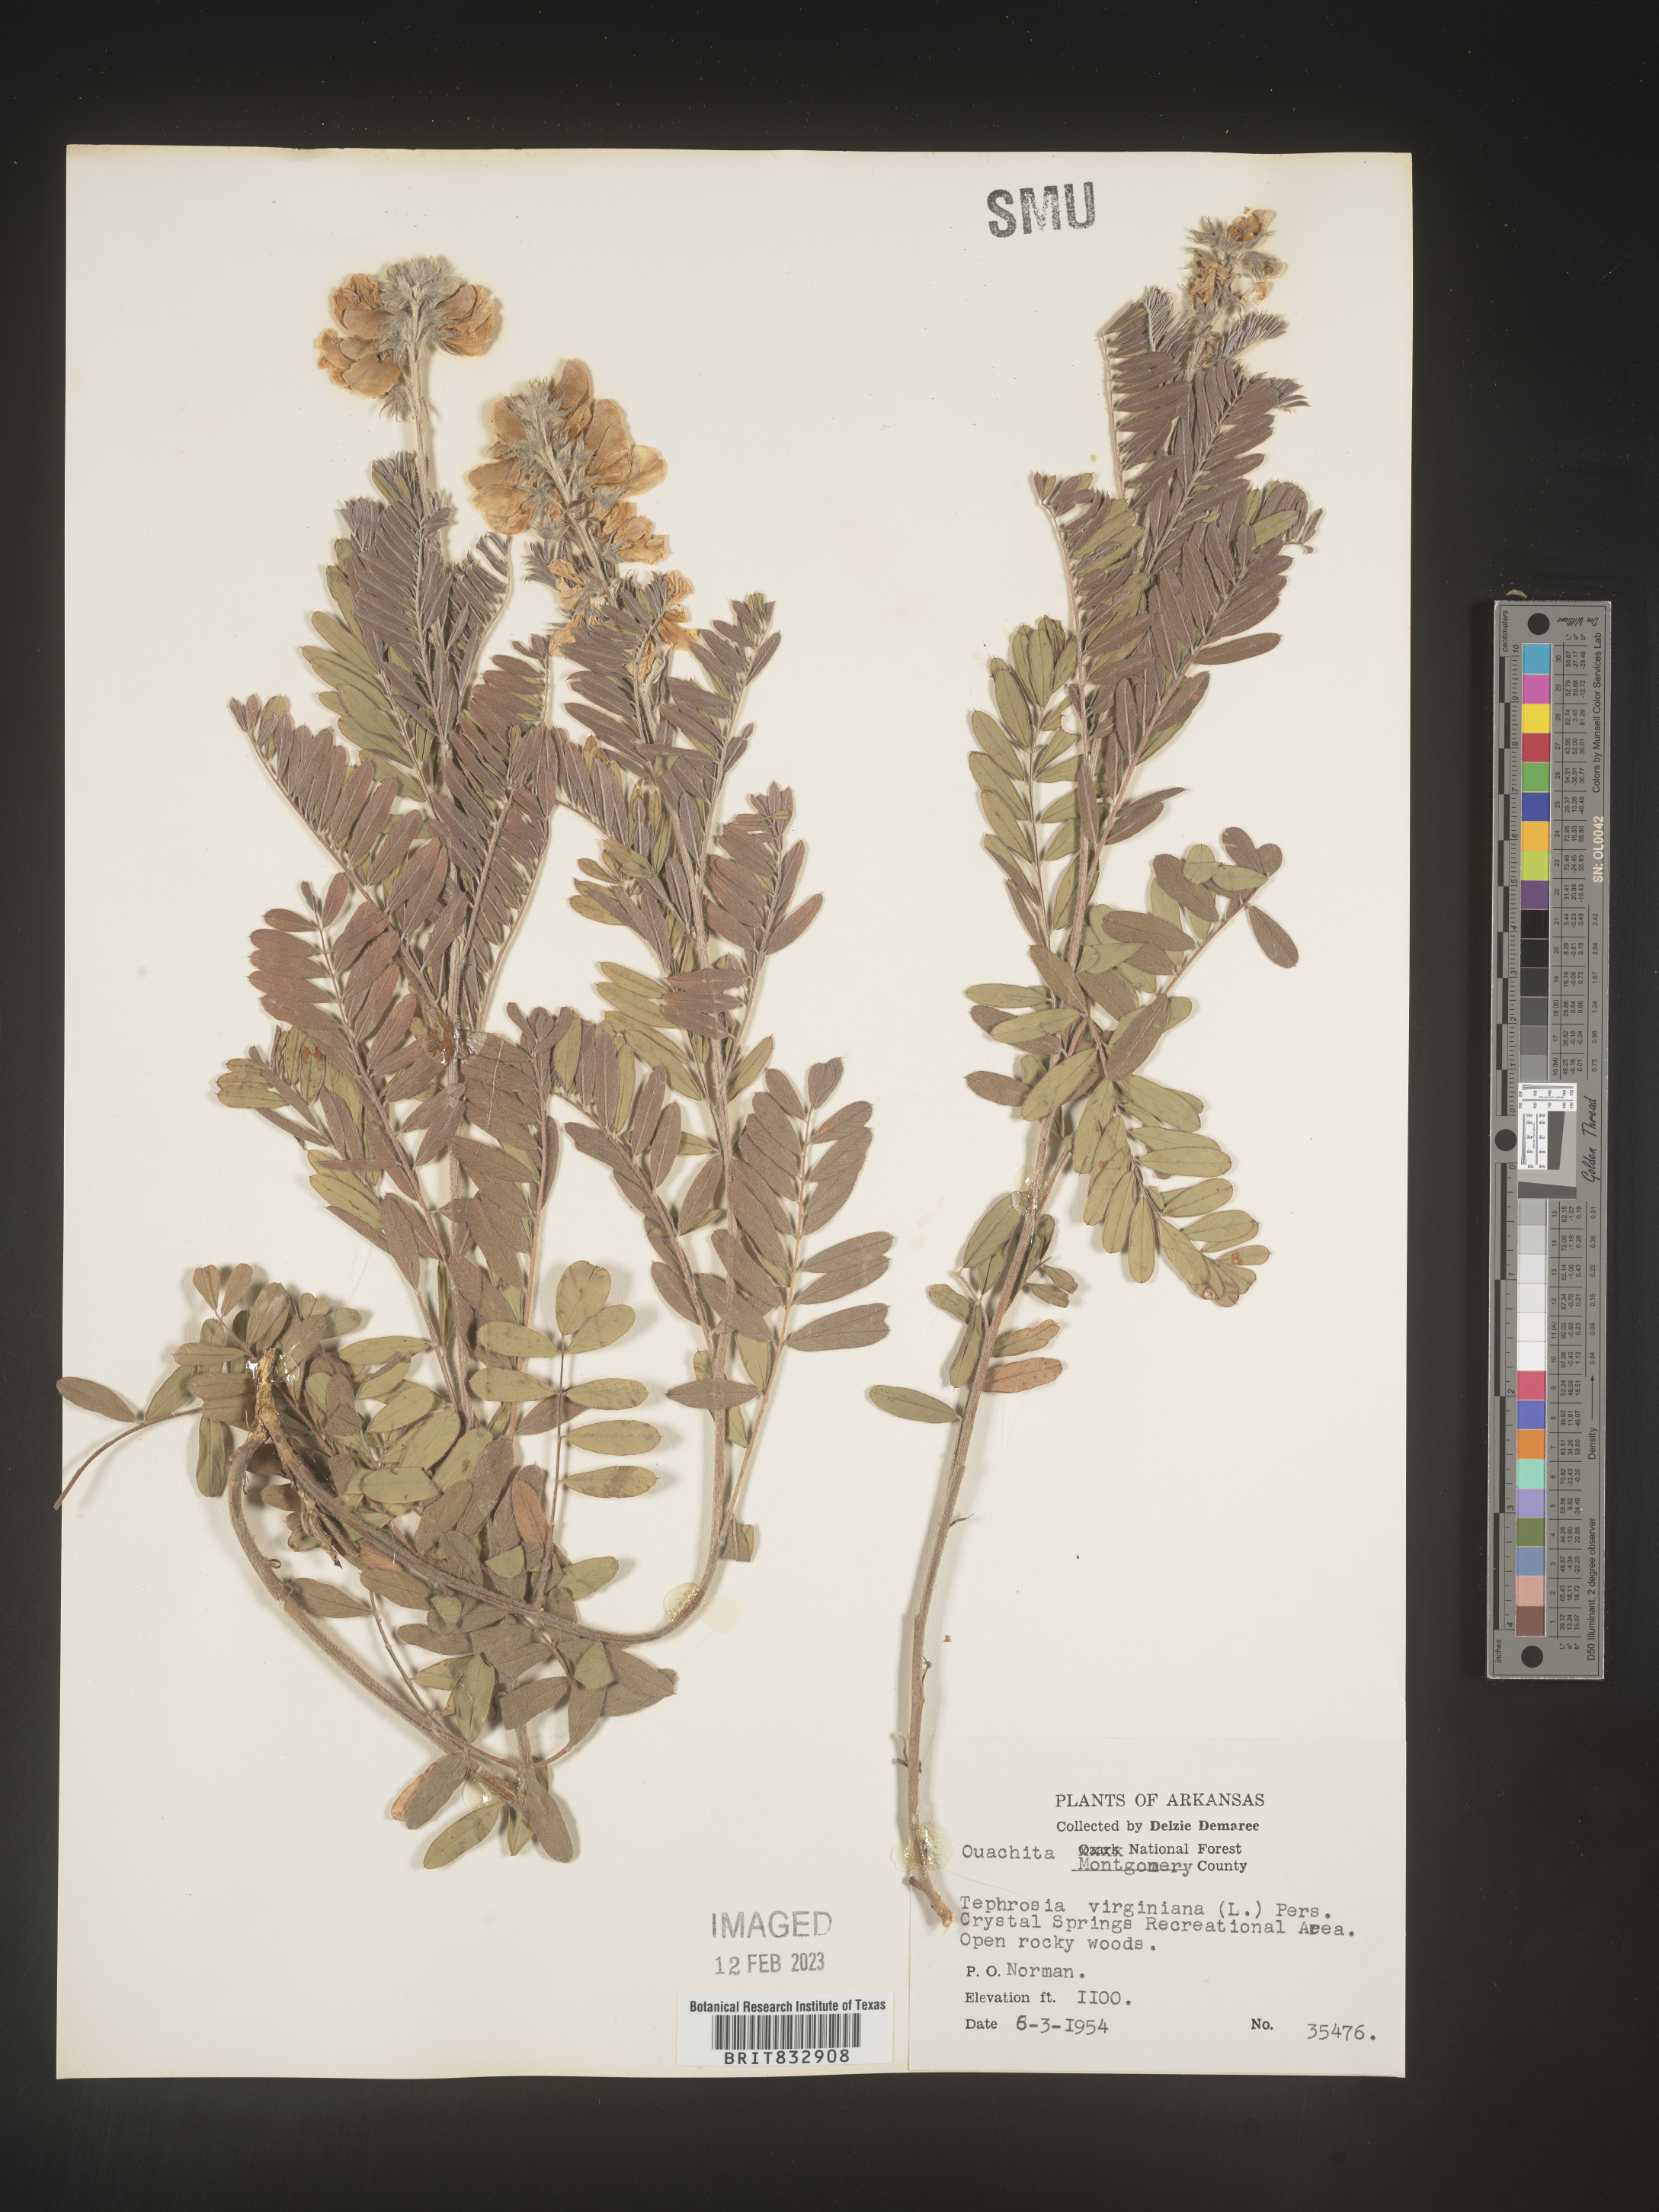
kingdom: Plantae
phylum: Tracheophyta
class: Magnoliopsida
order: Fabales
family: Fabaceae
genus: Tephrosia
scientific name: Tephrosia virginiana
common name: Rabbit-pea
